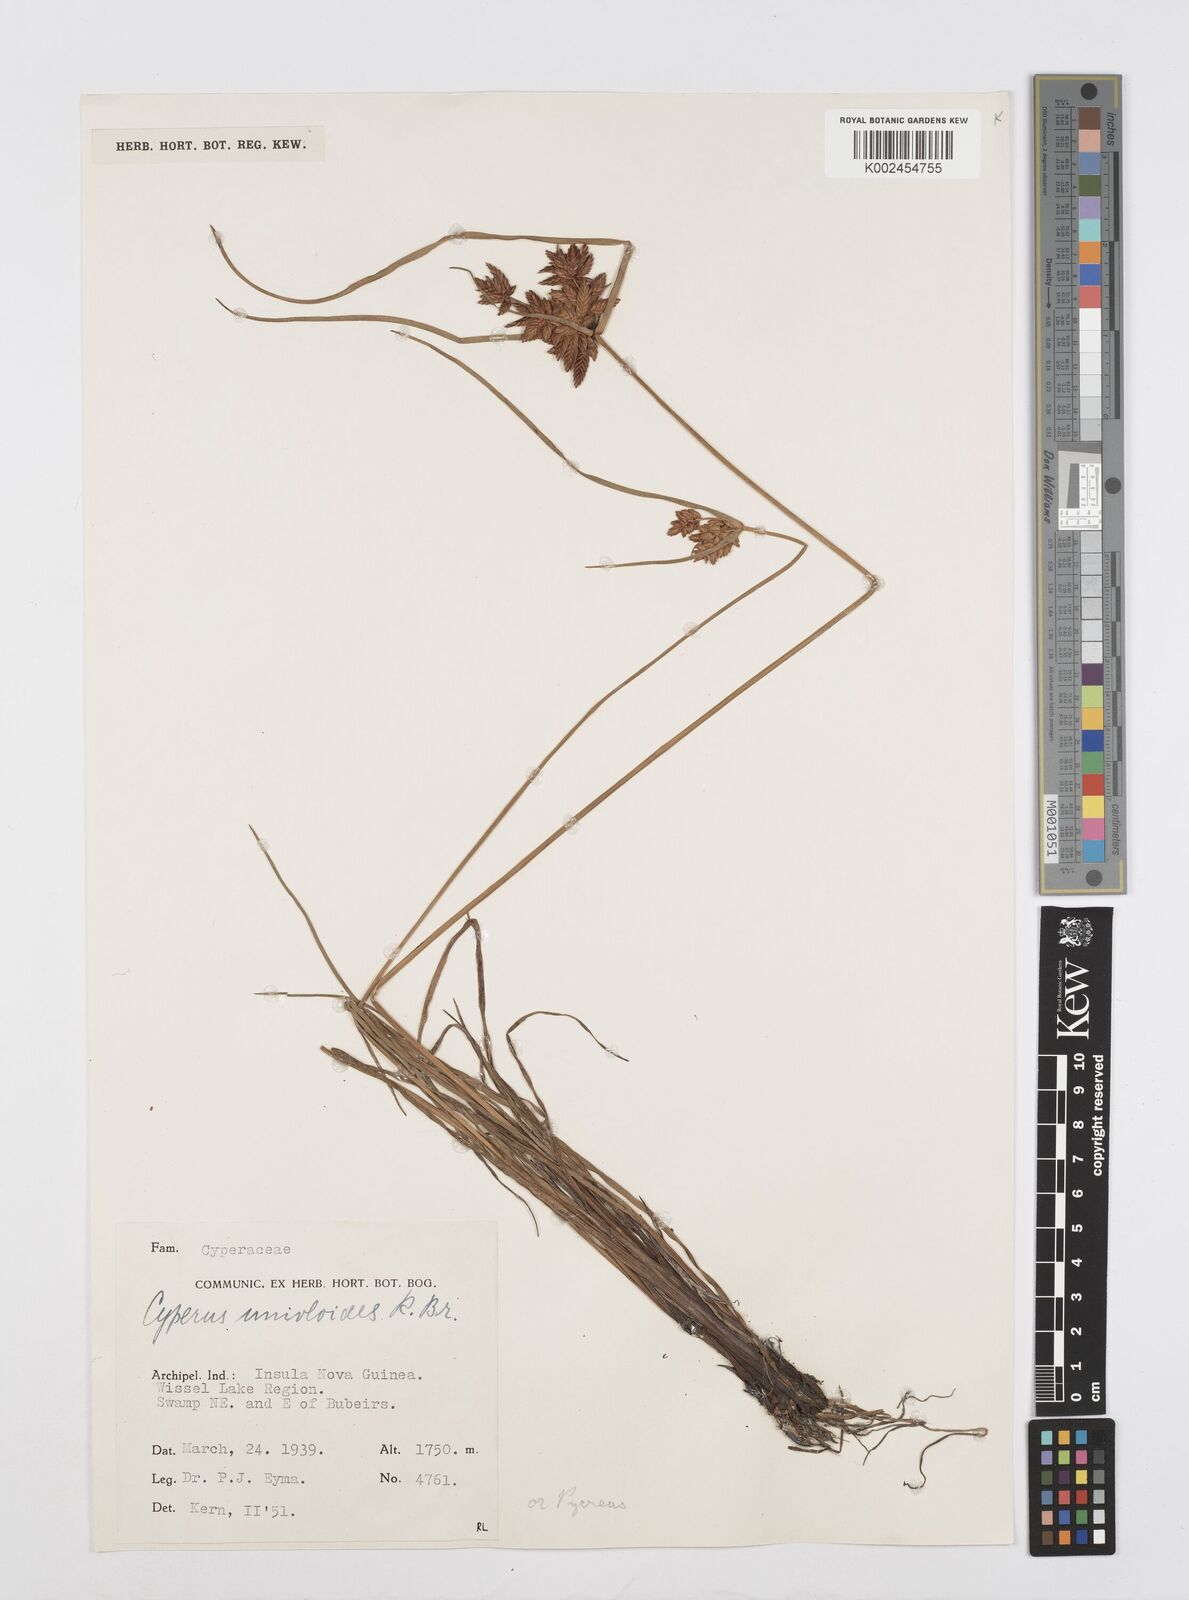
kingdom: Plantae
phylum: Tracheophyta
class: Liliopsida
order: Poales
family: Cyperaceae
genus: Cyperus
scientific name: Cyperus unioloides
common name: Uniola flatsedge
